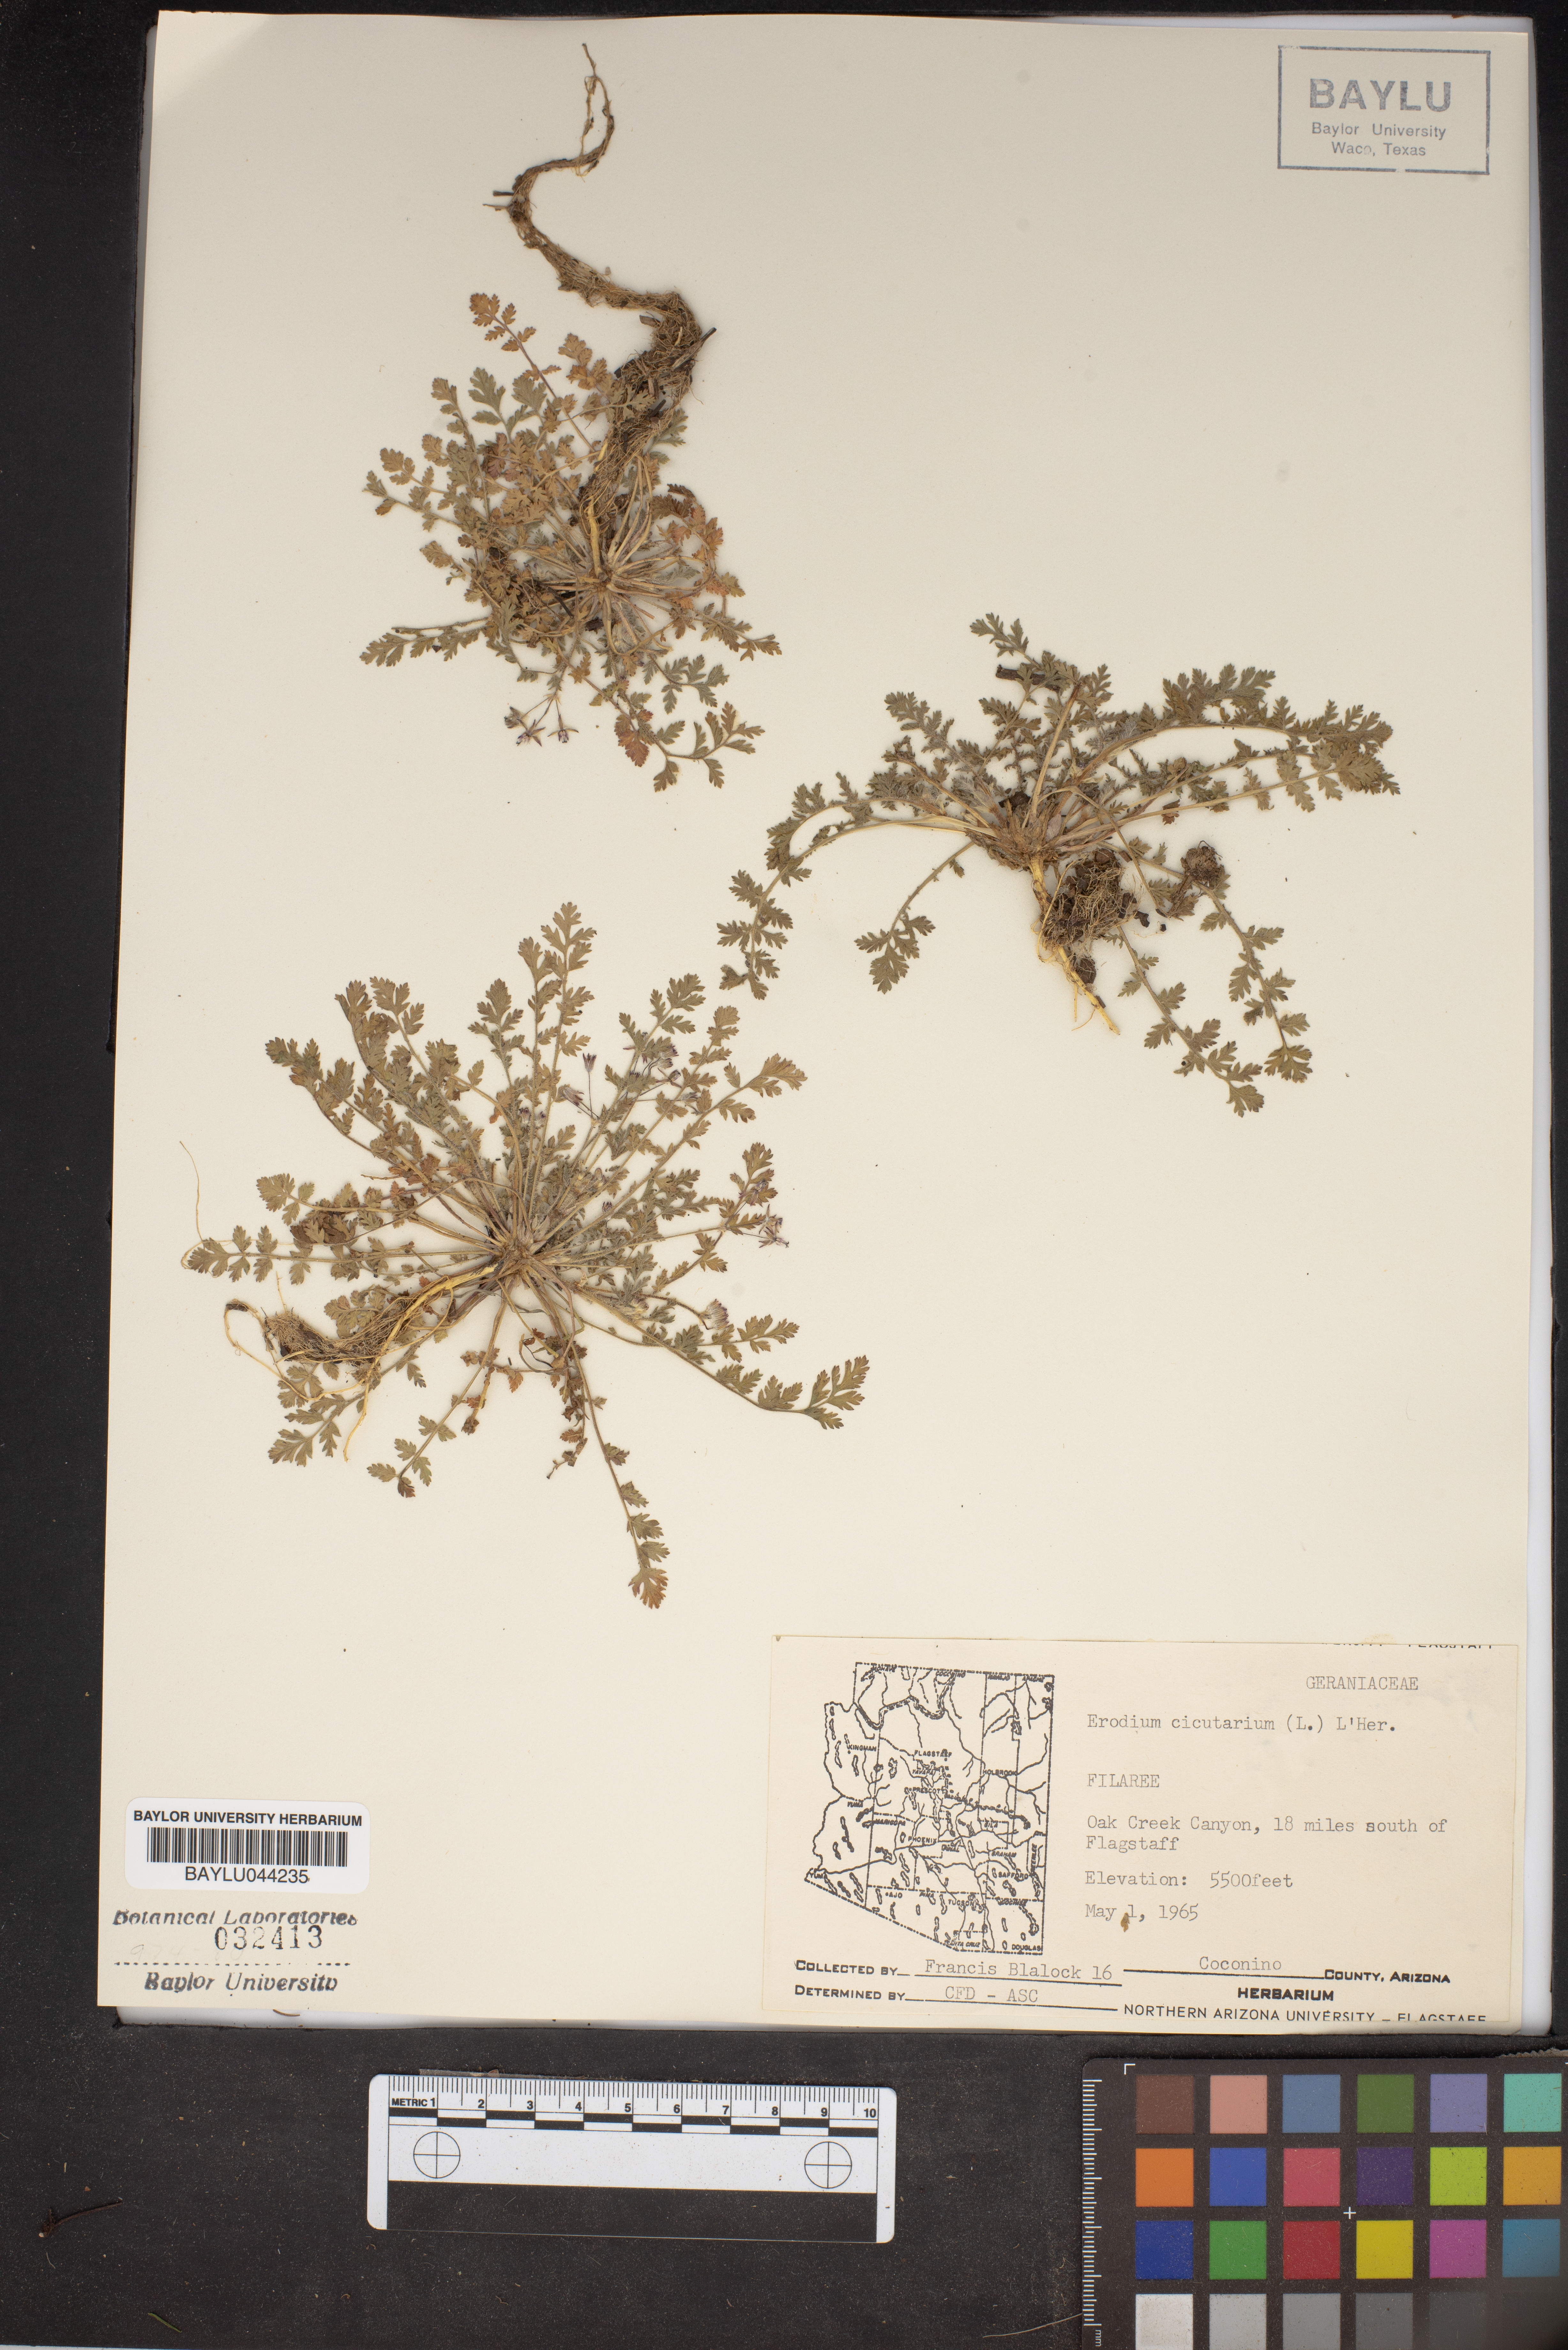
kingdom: Plantae
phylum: Tracheophyta
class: Magnoliopsida
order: Geraniales
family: Geraniaceae
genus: Erodium
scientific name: Erodium cicutarium
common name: Common stork's-bill
